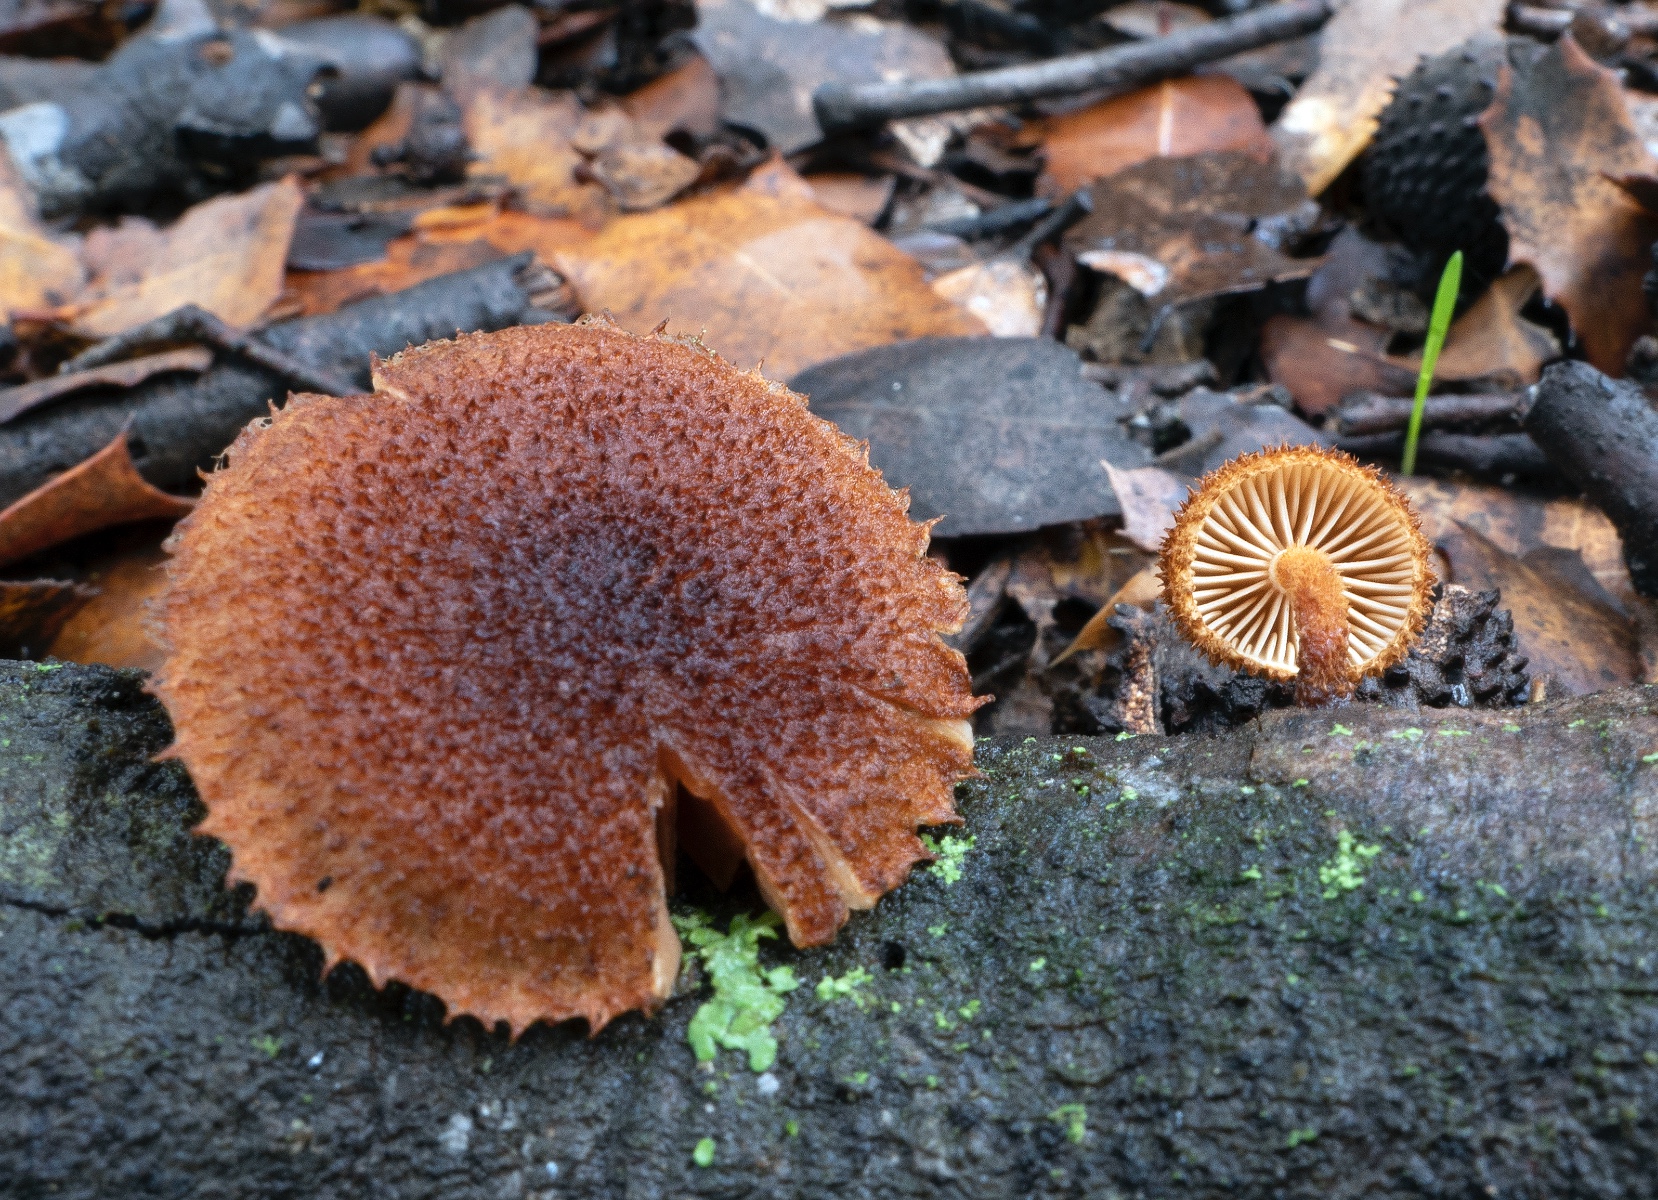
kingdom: Fungi
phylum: Basidiomycota
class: Agaricomycetes
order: Agaricales
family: Tubariaceae
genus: Phaeomarasmius
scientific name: Phaeomarasmius erinaceus
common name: spidsskælhat
